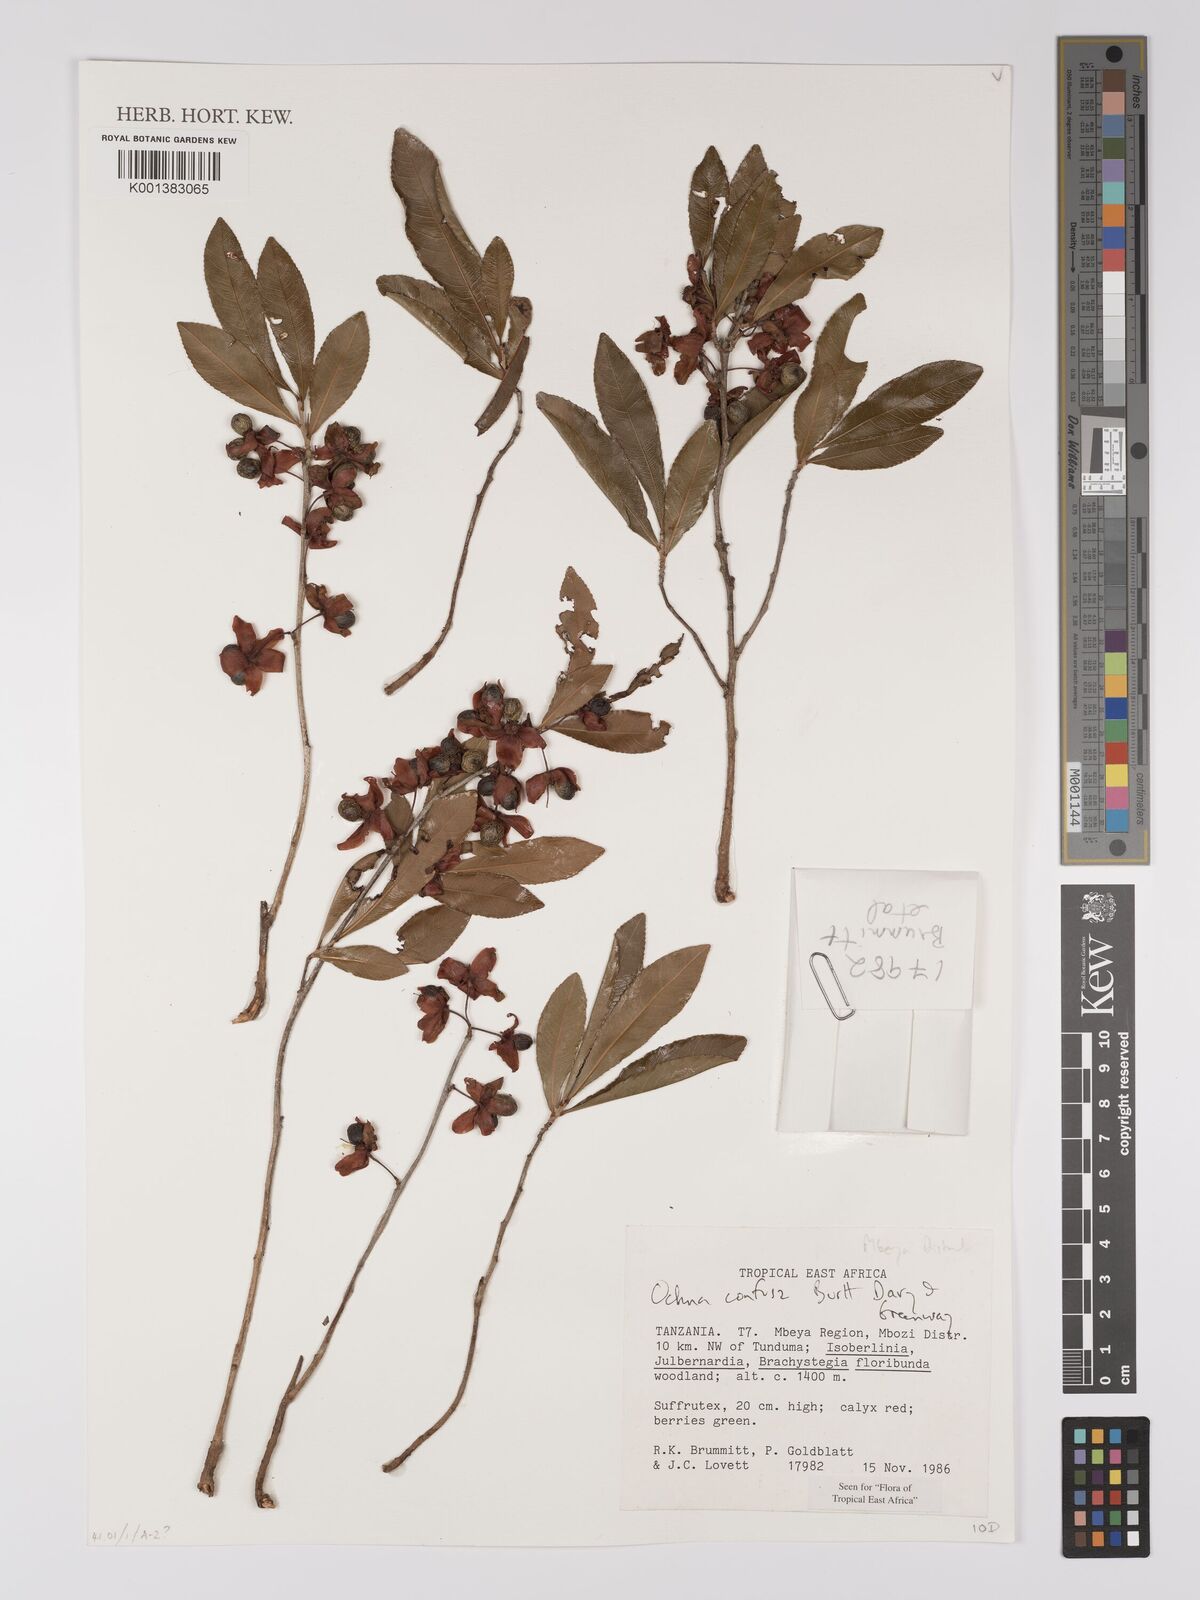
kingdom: Plantae
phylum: Tracheophyta
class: Magnoliopsida
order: Malpighiales
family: Ochnaceae
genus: Ochna
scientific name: Ochna confusa
